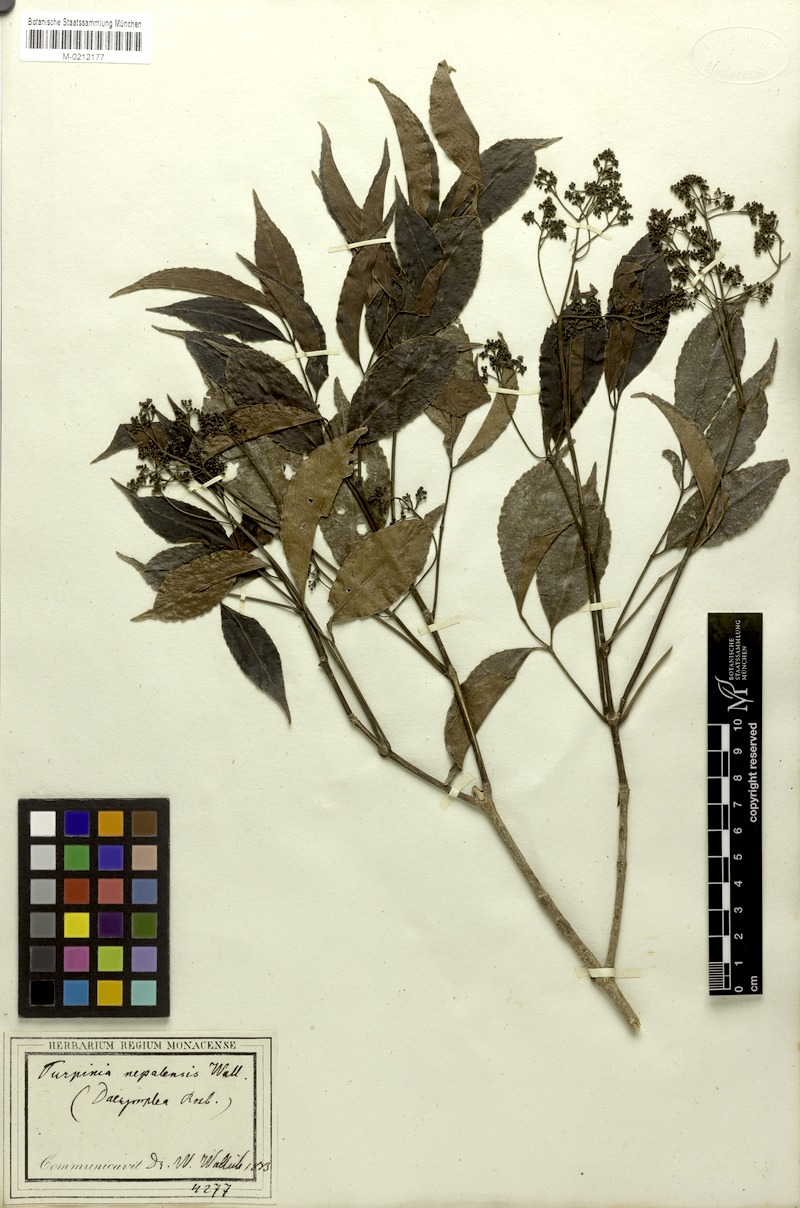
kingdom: Plantae
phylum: Tracheophyta
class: Magnoliopsida
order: Crossosomatales
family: Staphyleaceae
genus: Turpinia
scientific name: Turpinia cochinchinensis
